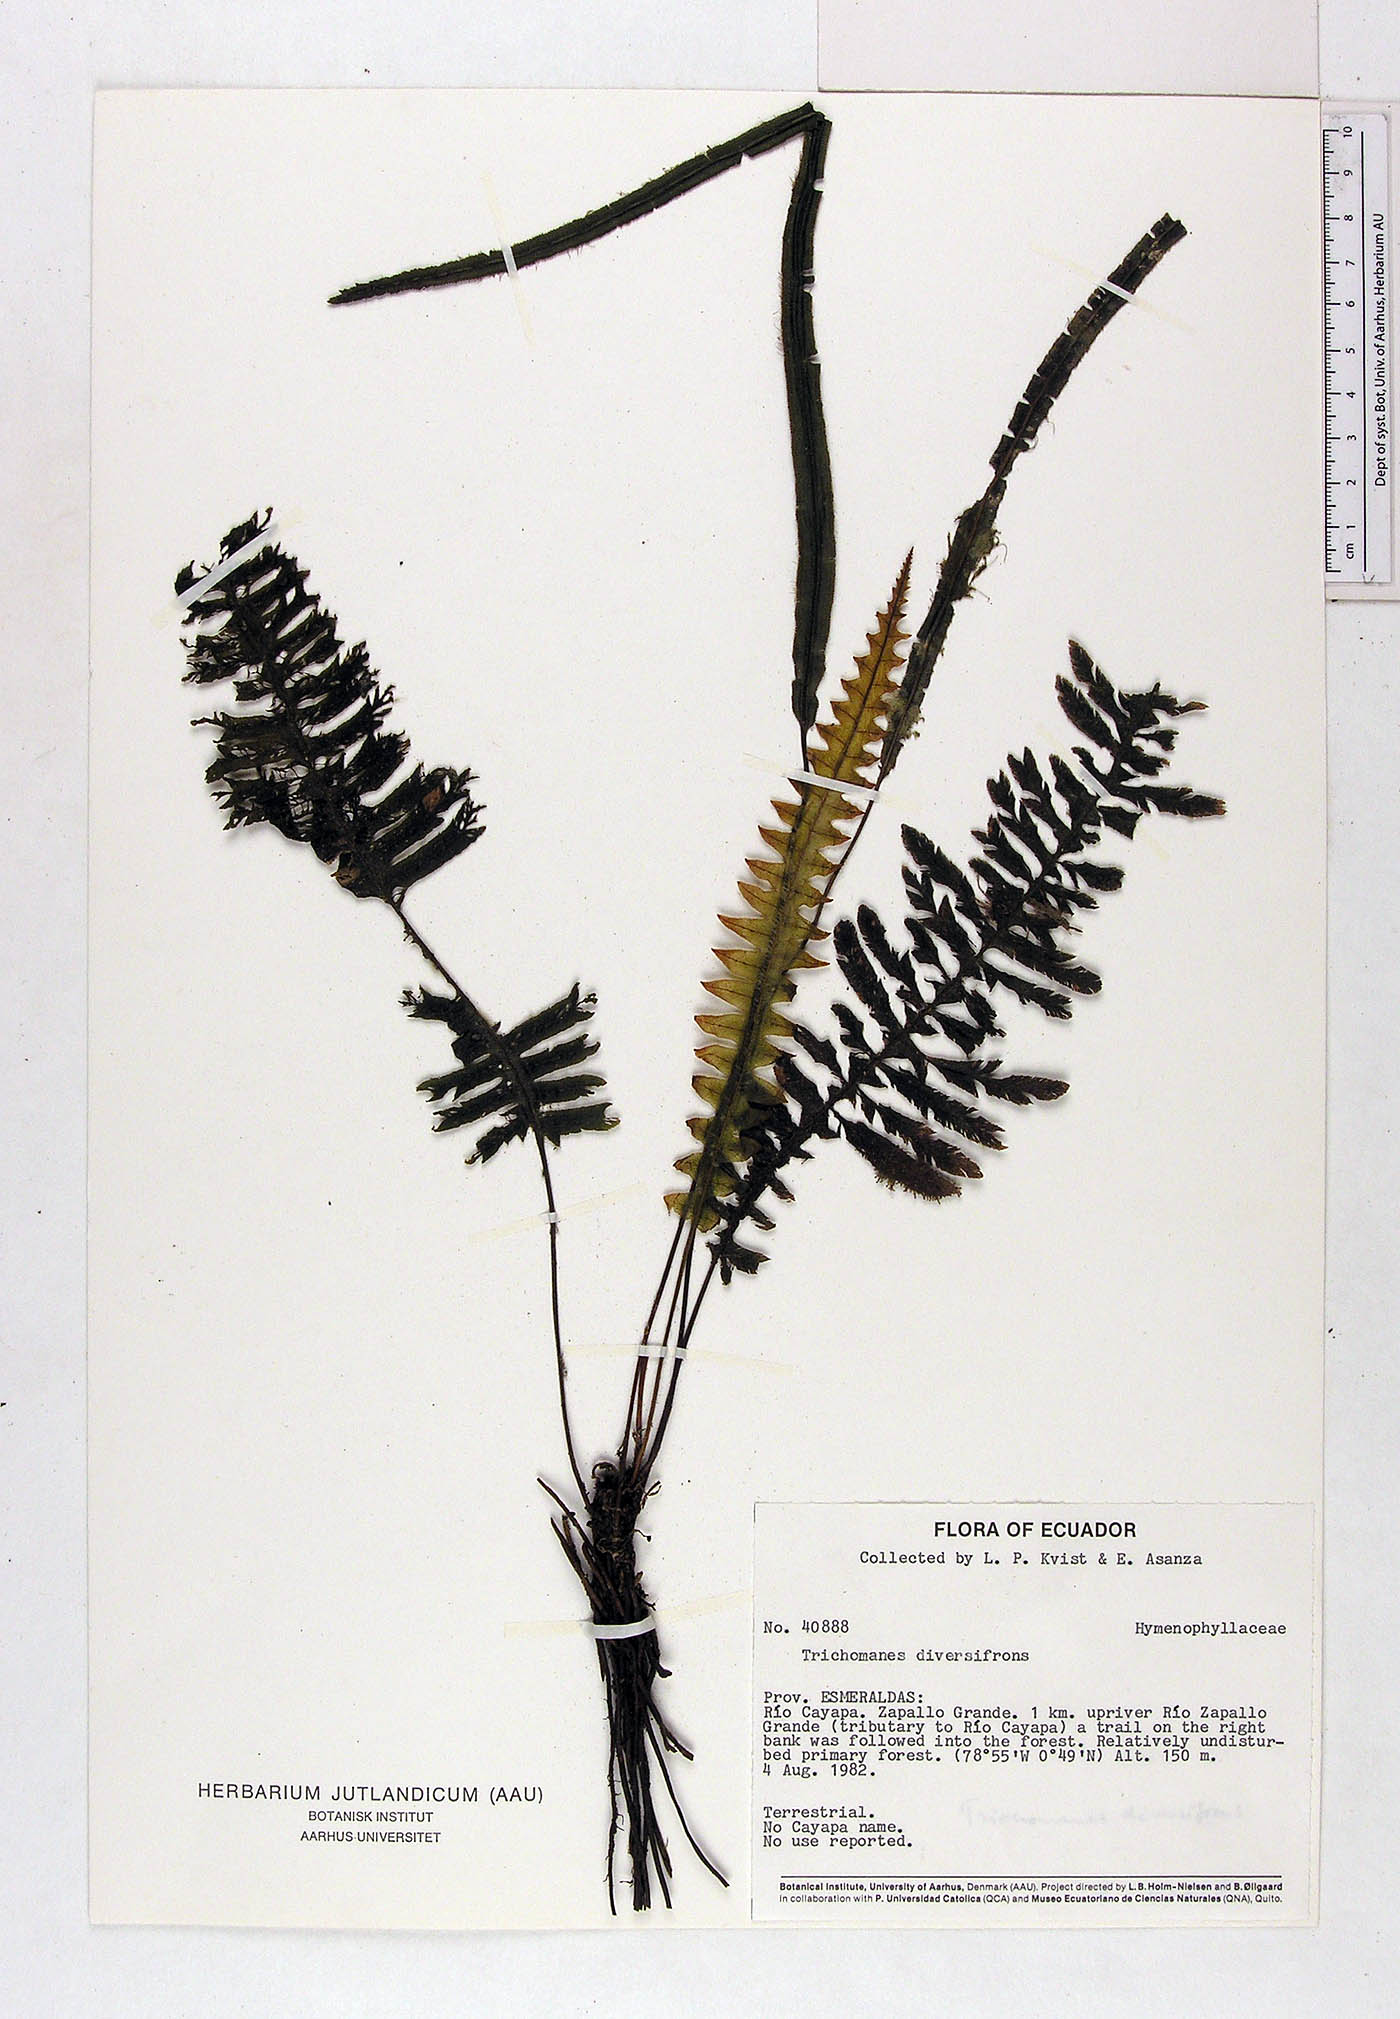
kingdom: Plantae
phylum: Tracheophyta
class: Polypodiopsida
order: Hymenophyllales
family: Hymenophyllaceae
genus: Trichomanes
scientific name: Trichomanes diversifrons
